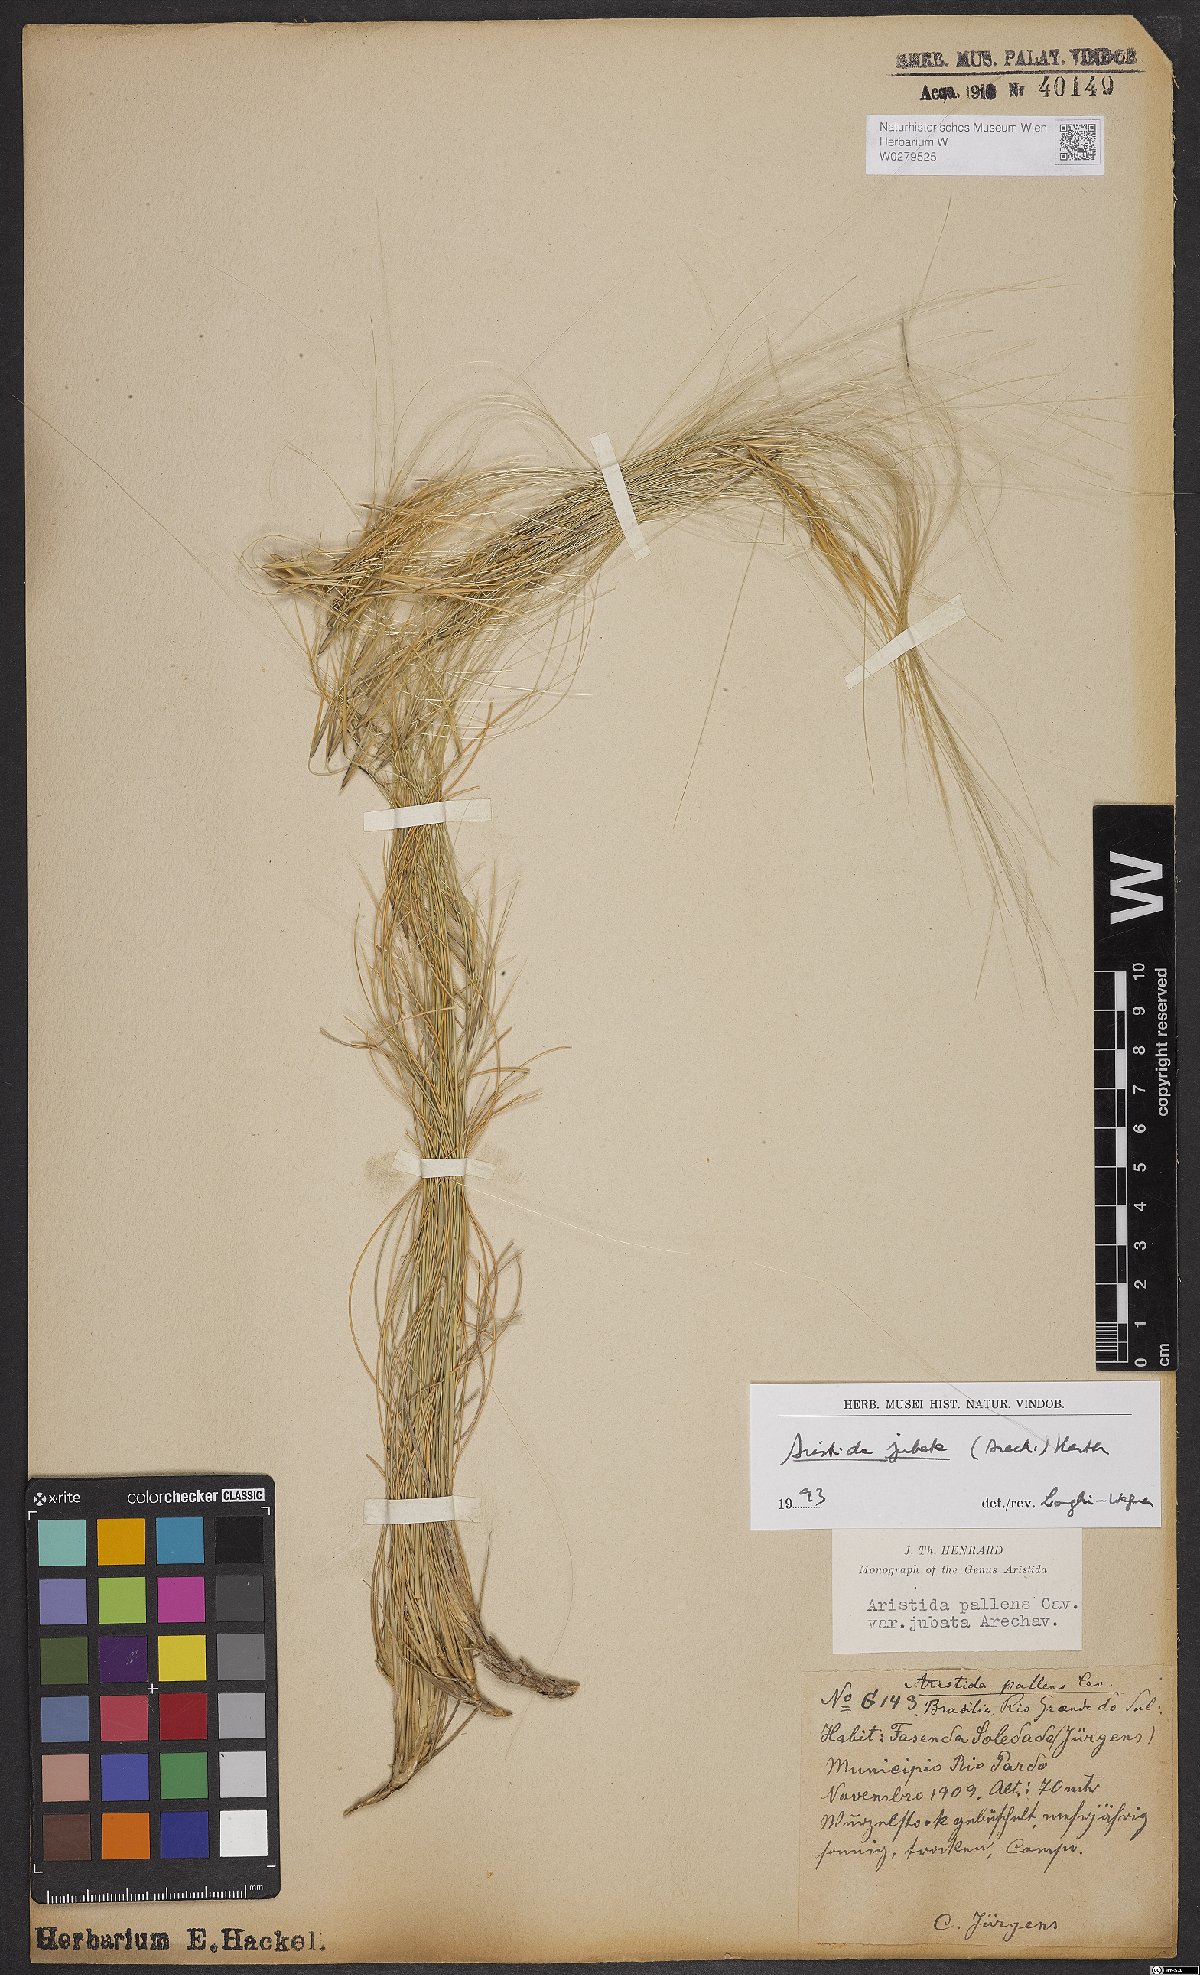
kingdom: Plantae
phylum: Tracheophyta
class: Liliopsida
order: Poales
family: Poaceae
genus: Aristida
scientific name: Aristida jubata
